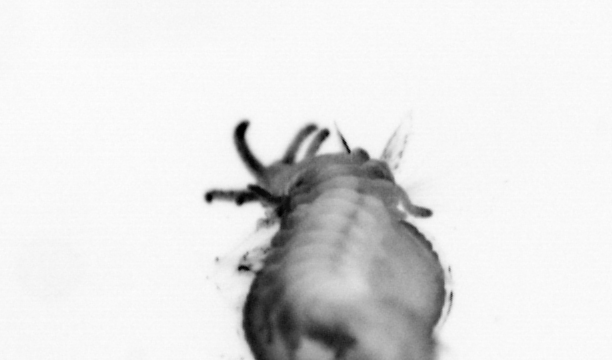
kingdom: Animalia
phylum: Annelida
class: Polychaeta
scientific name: Polychaeta
